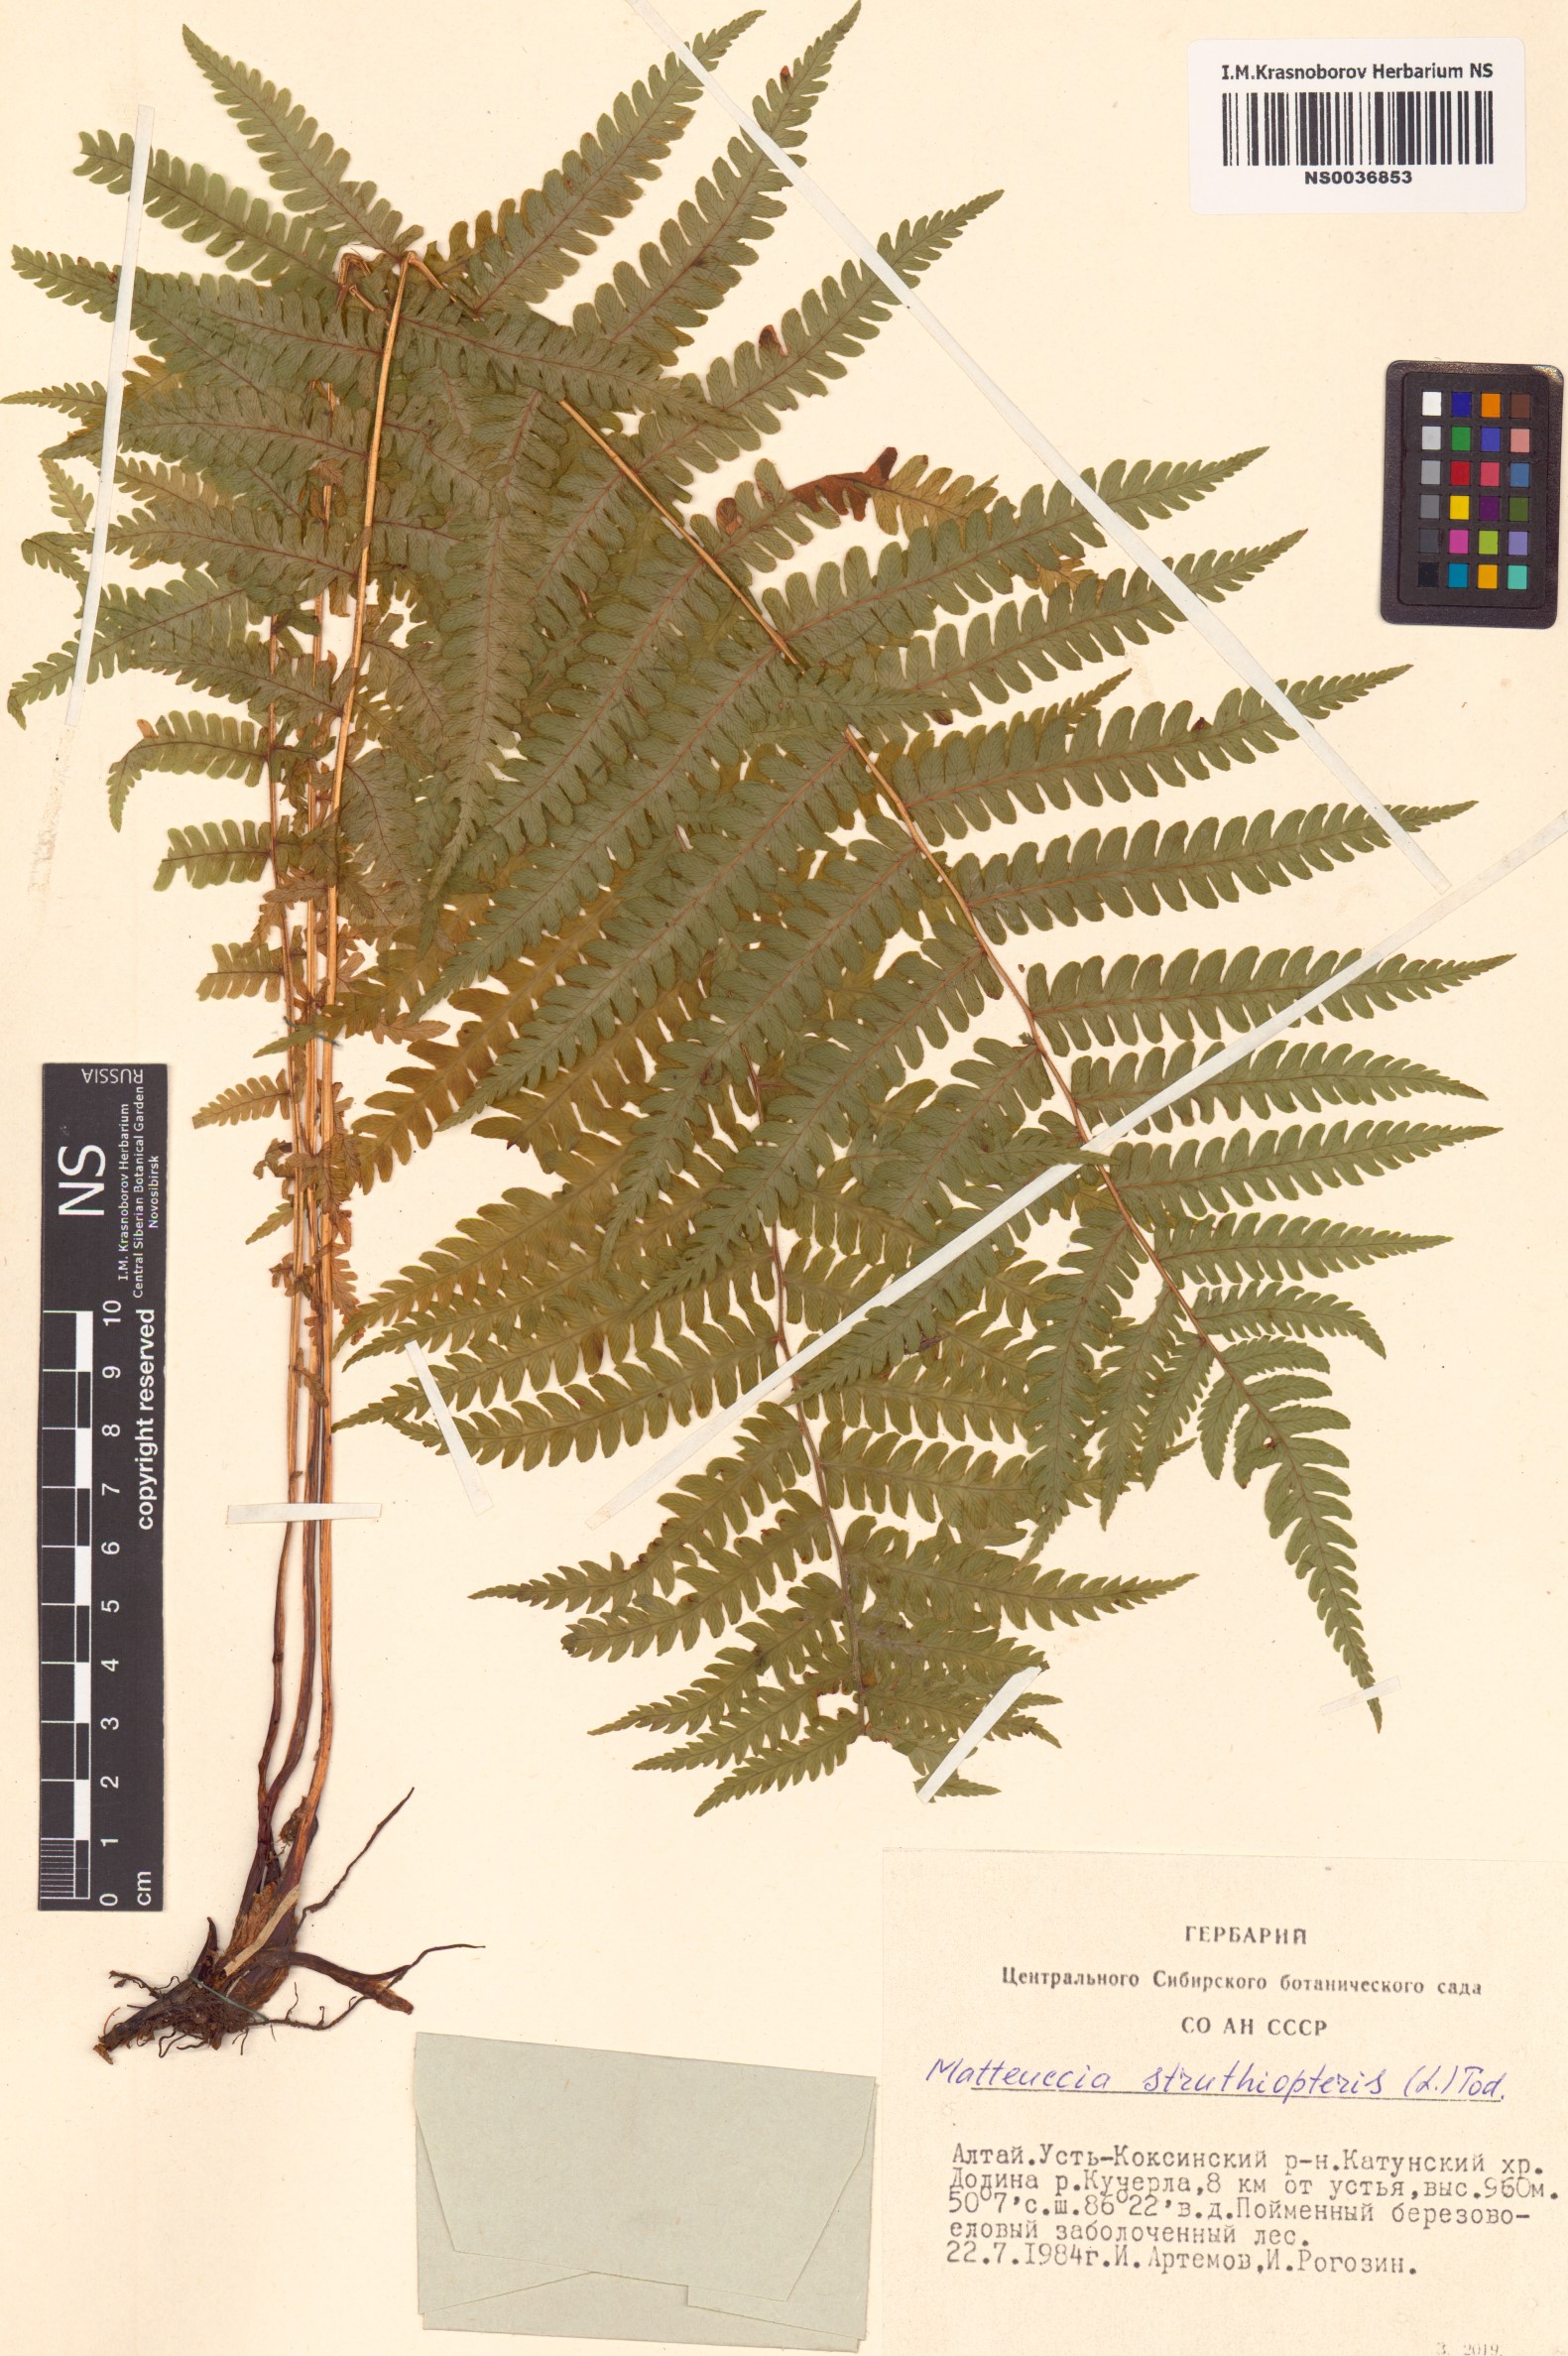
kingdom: Plantae
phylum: Tracheophyta
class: Polypodiopsida
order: Polypodiales
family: Onocleaceae
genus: Matteuccia
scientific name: Matteuccia struthiopteris
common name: Ostrich fern
